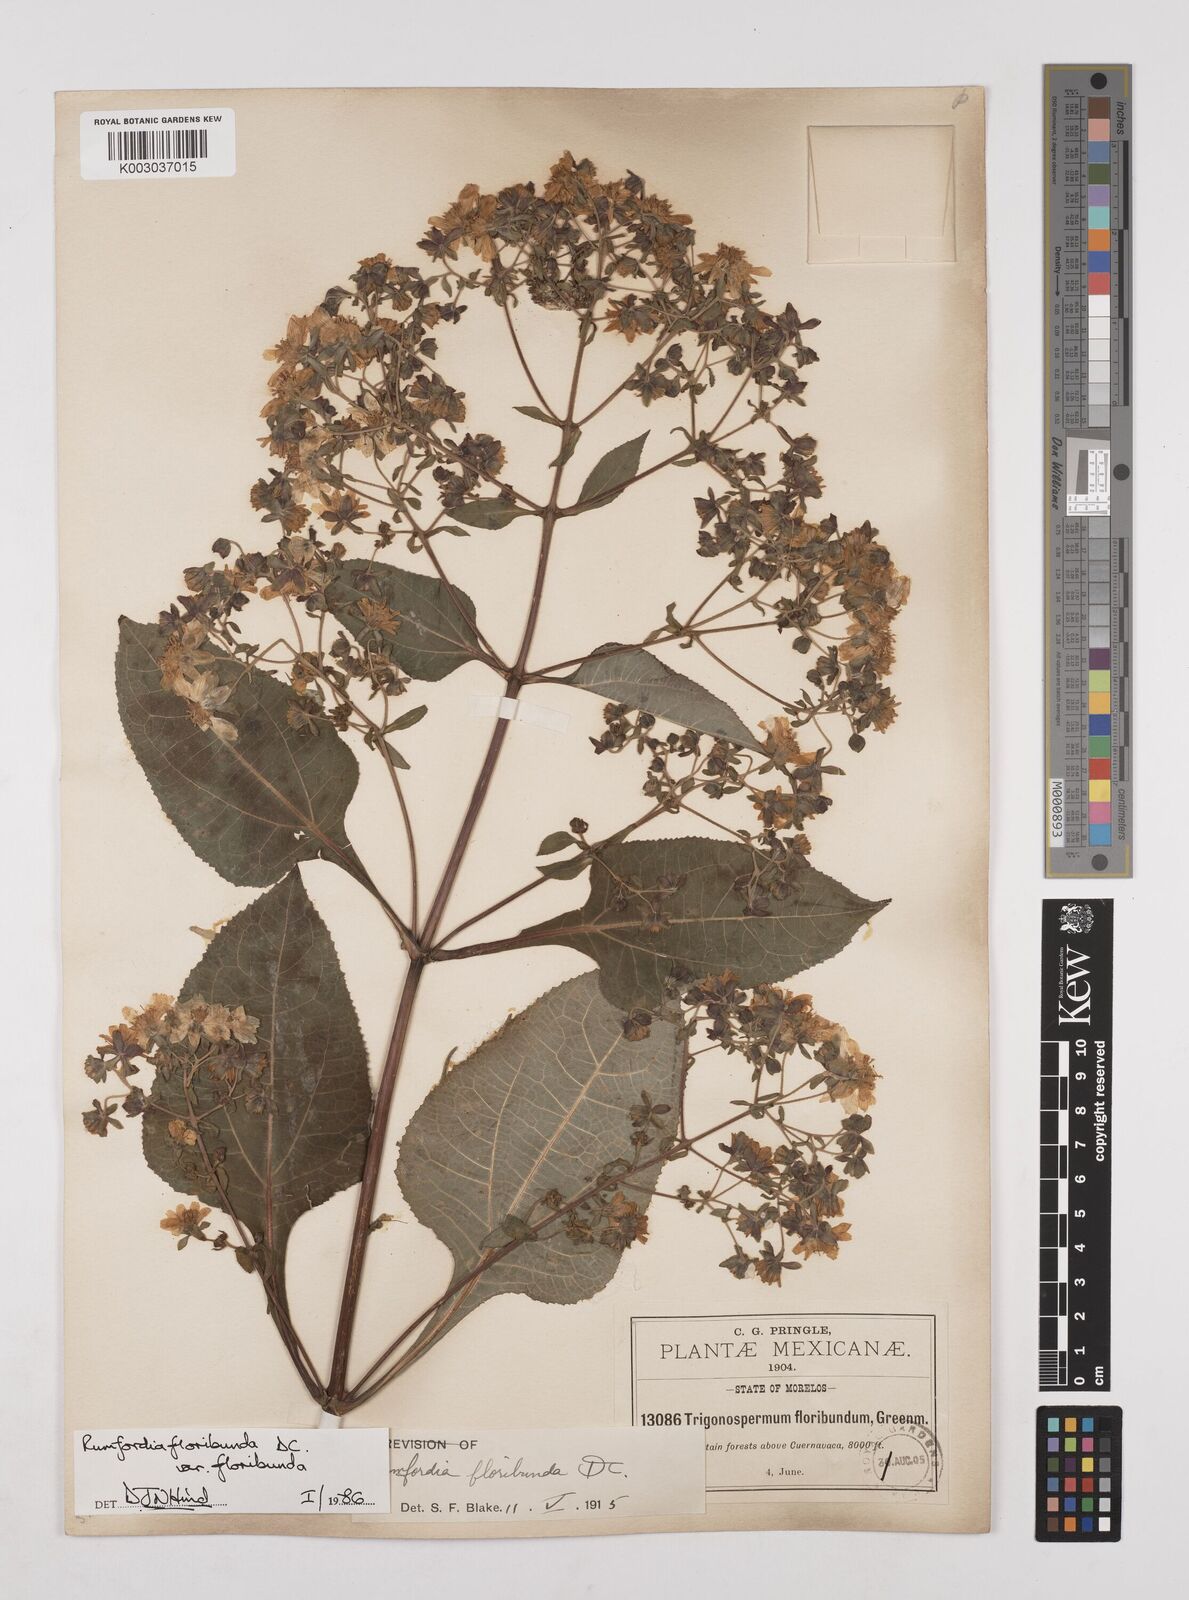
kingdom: Plantae
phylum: Tracheophyta
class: Magnoliopsida
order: Asterales
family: Asteraceae
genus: Rumfordia
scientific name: Rumfordia floribunda
